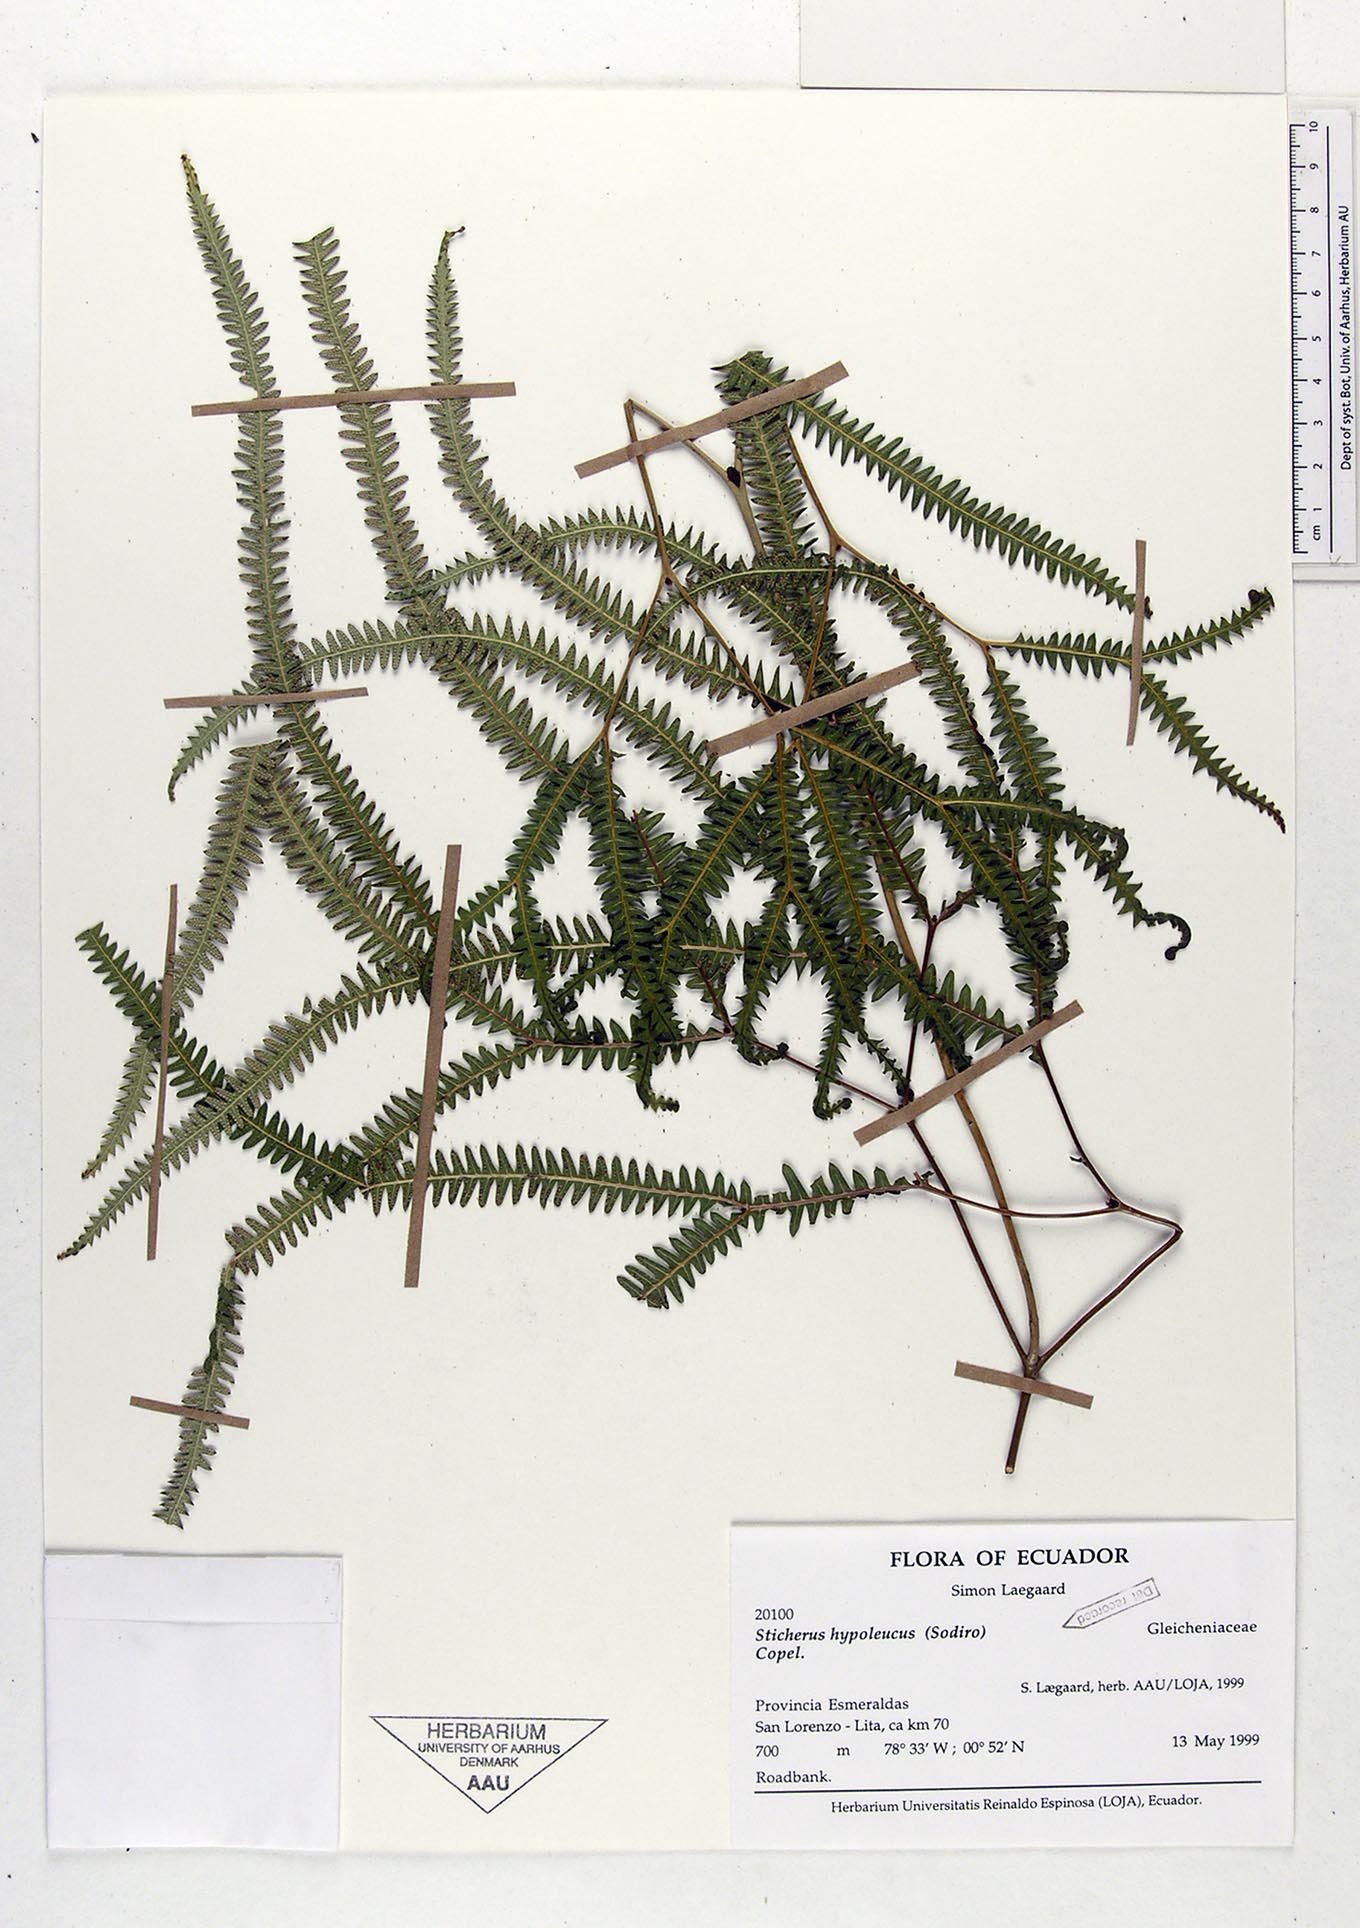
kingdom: Plantae
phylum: Tracheophyta
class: Polypodiopsida
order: Gleicheniales
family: Gleicheniaceae
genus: Sticherus
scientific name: Sticherus hypoleucus
